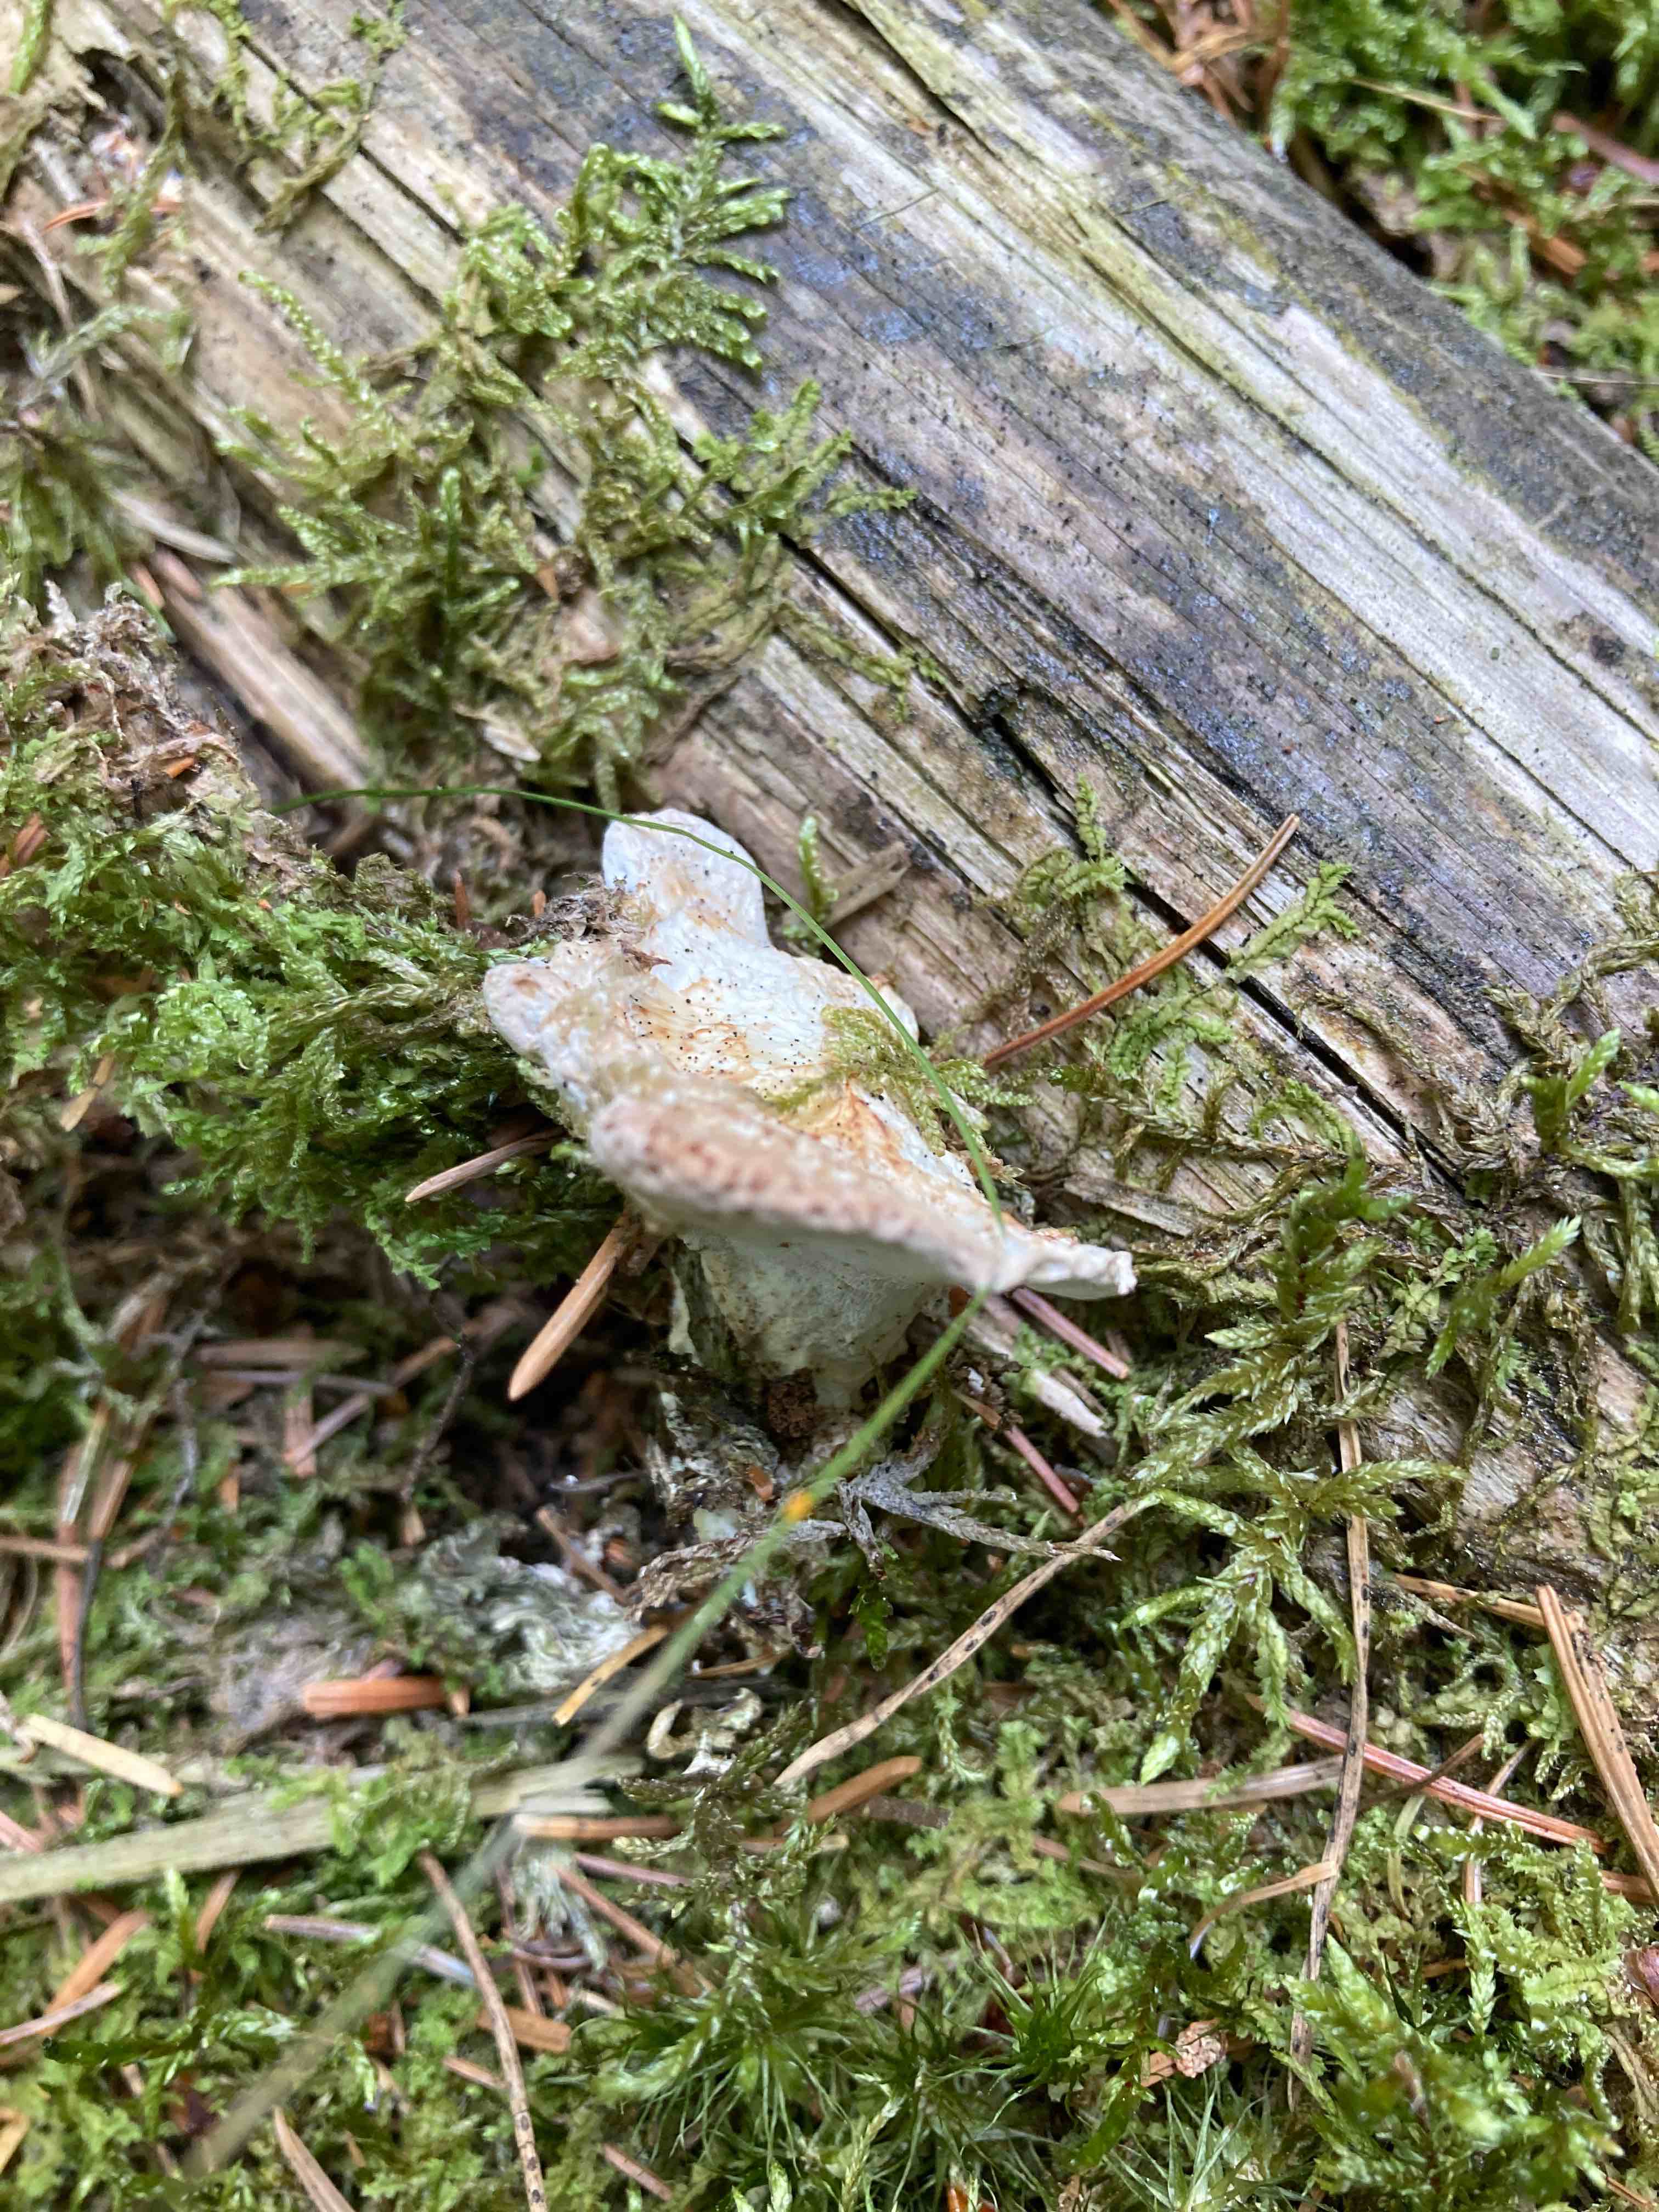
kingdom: Fungi
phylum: Basidiomycota
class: Agaricomycetes
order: Polyporales
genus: Calcipostia
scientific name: Calcipostia guttulata
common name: dråbe-kødporesvamp
